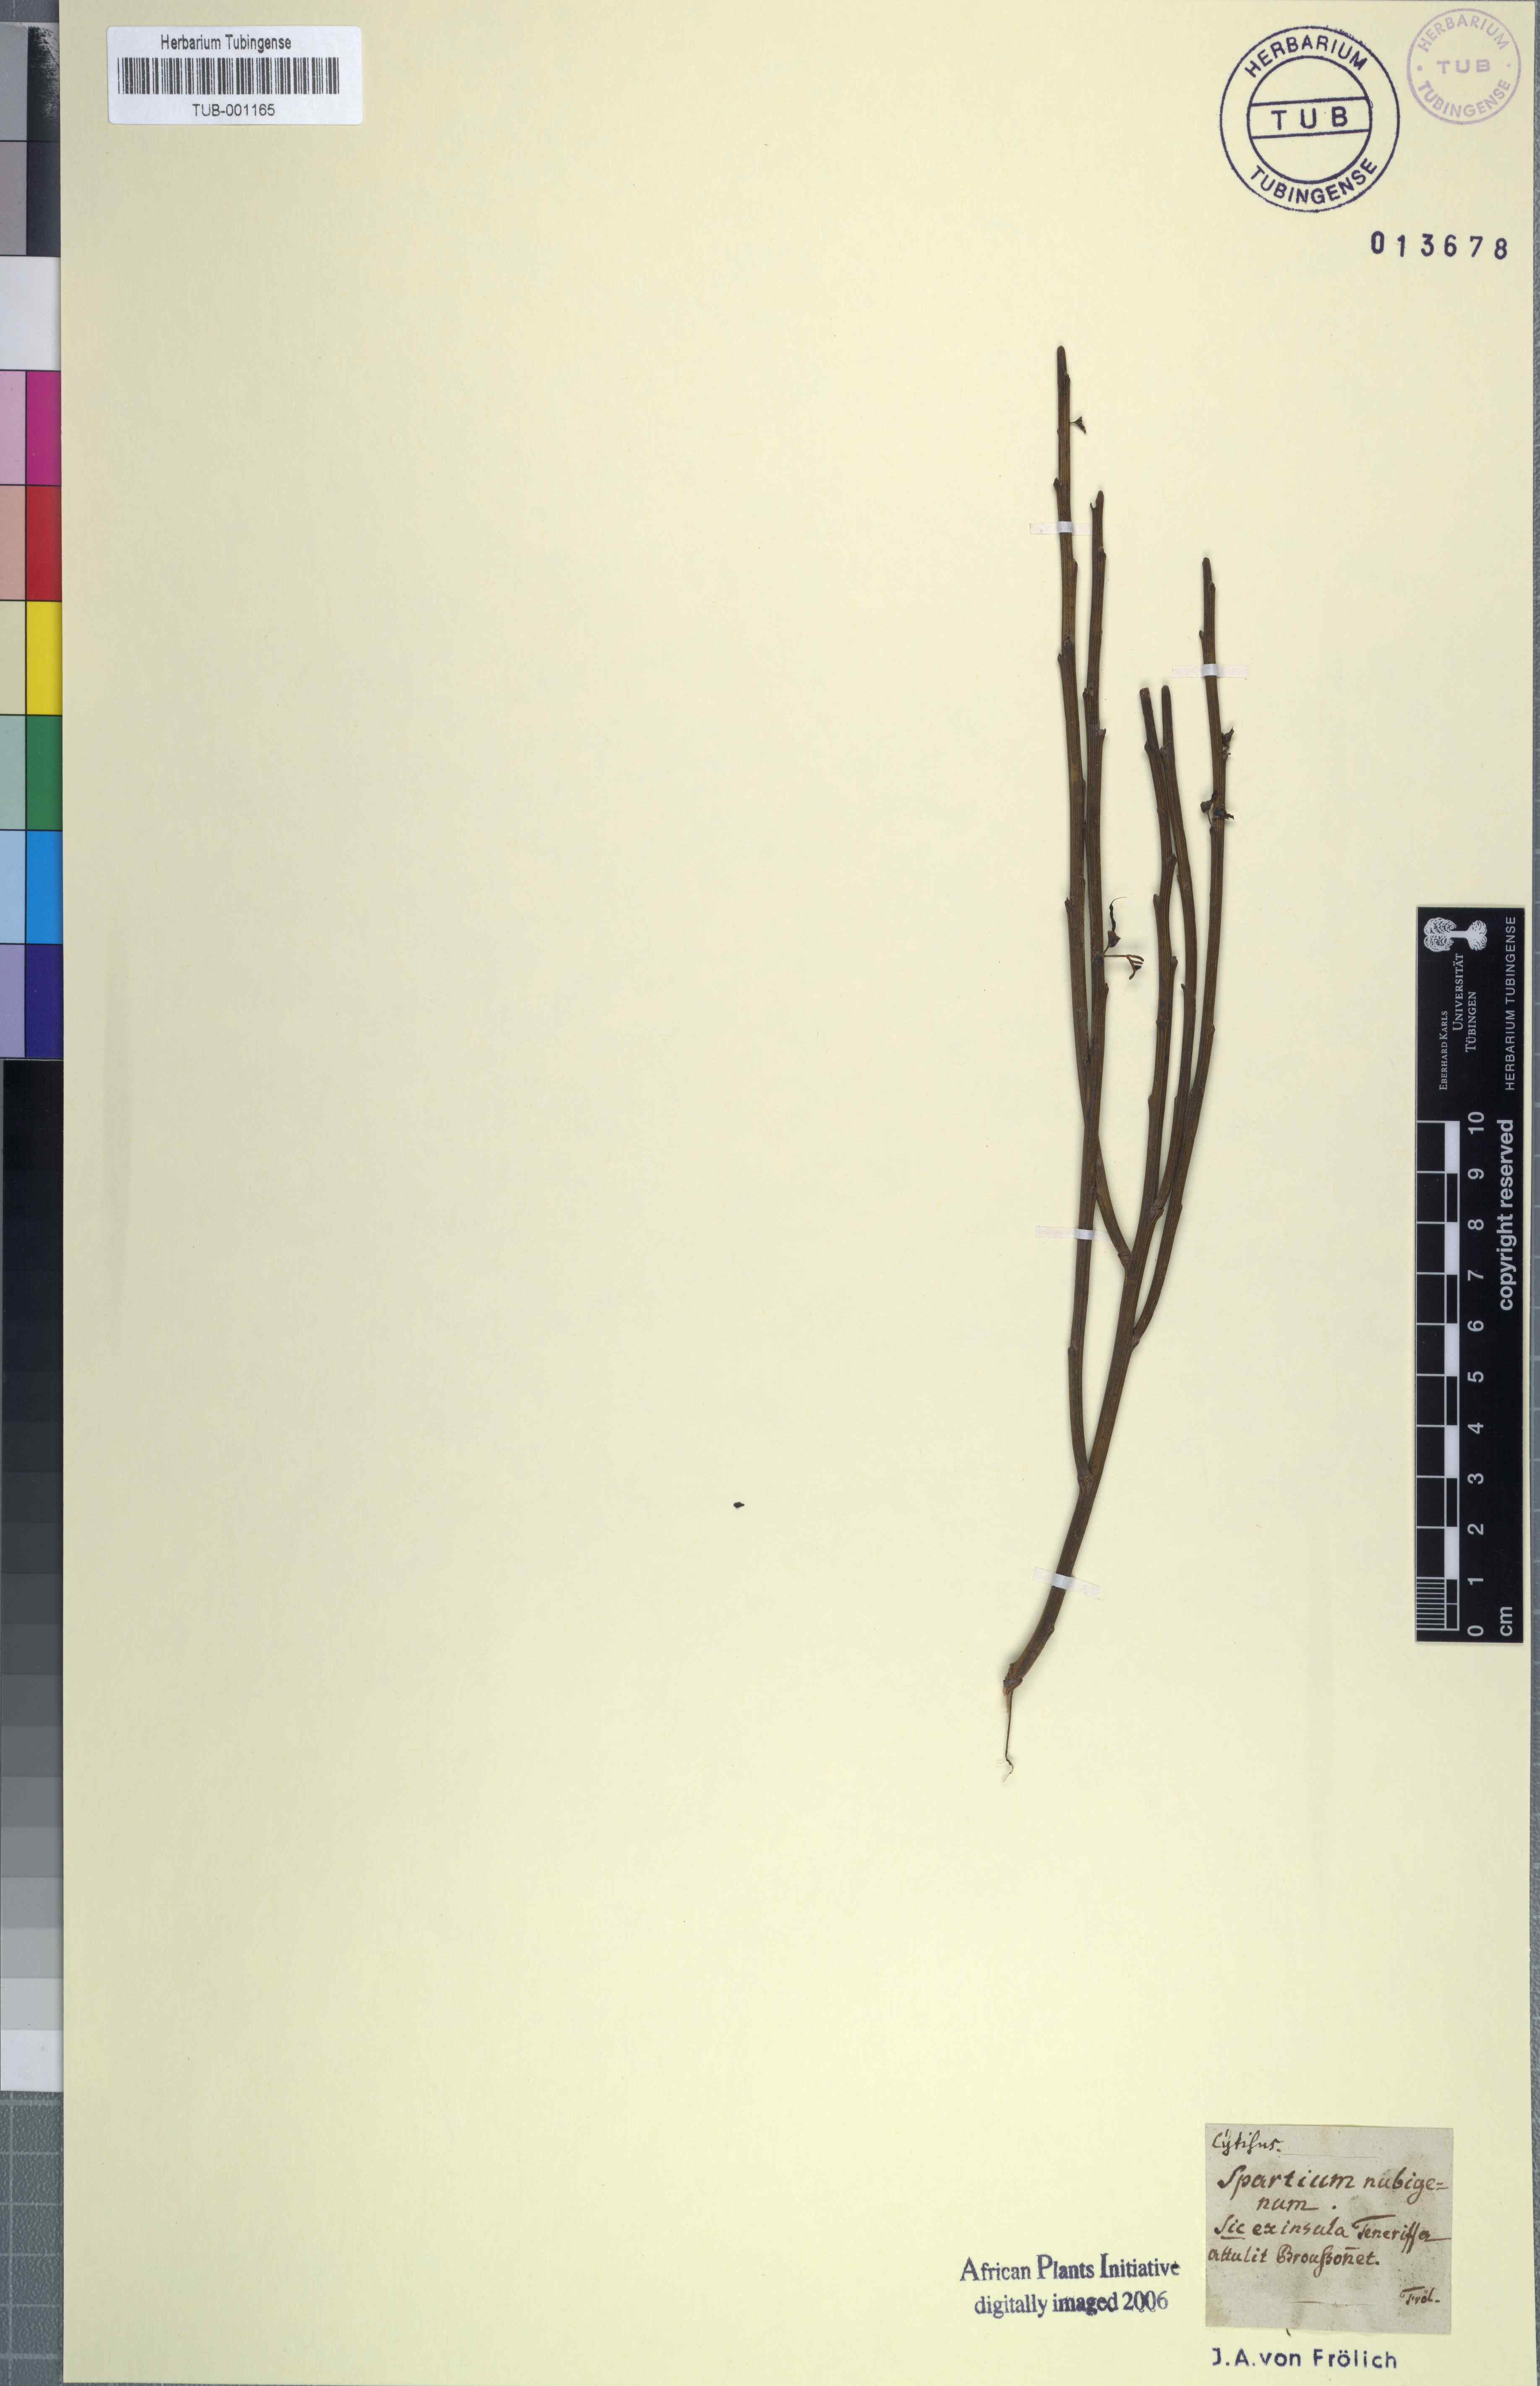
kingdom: Plantae
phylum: Tracheophyta
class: Magnoliopsida
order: Fabales
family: Fabaceae
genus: Cytisus
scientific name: Cytisus supranubius
